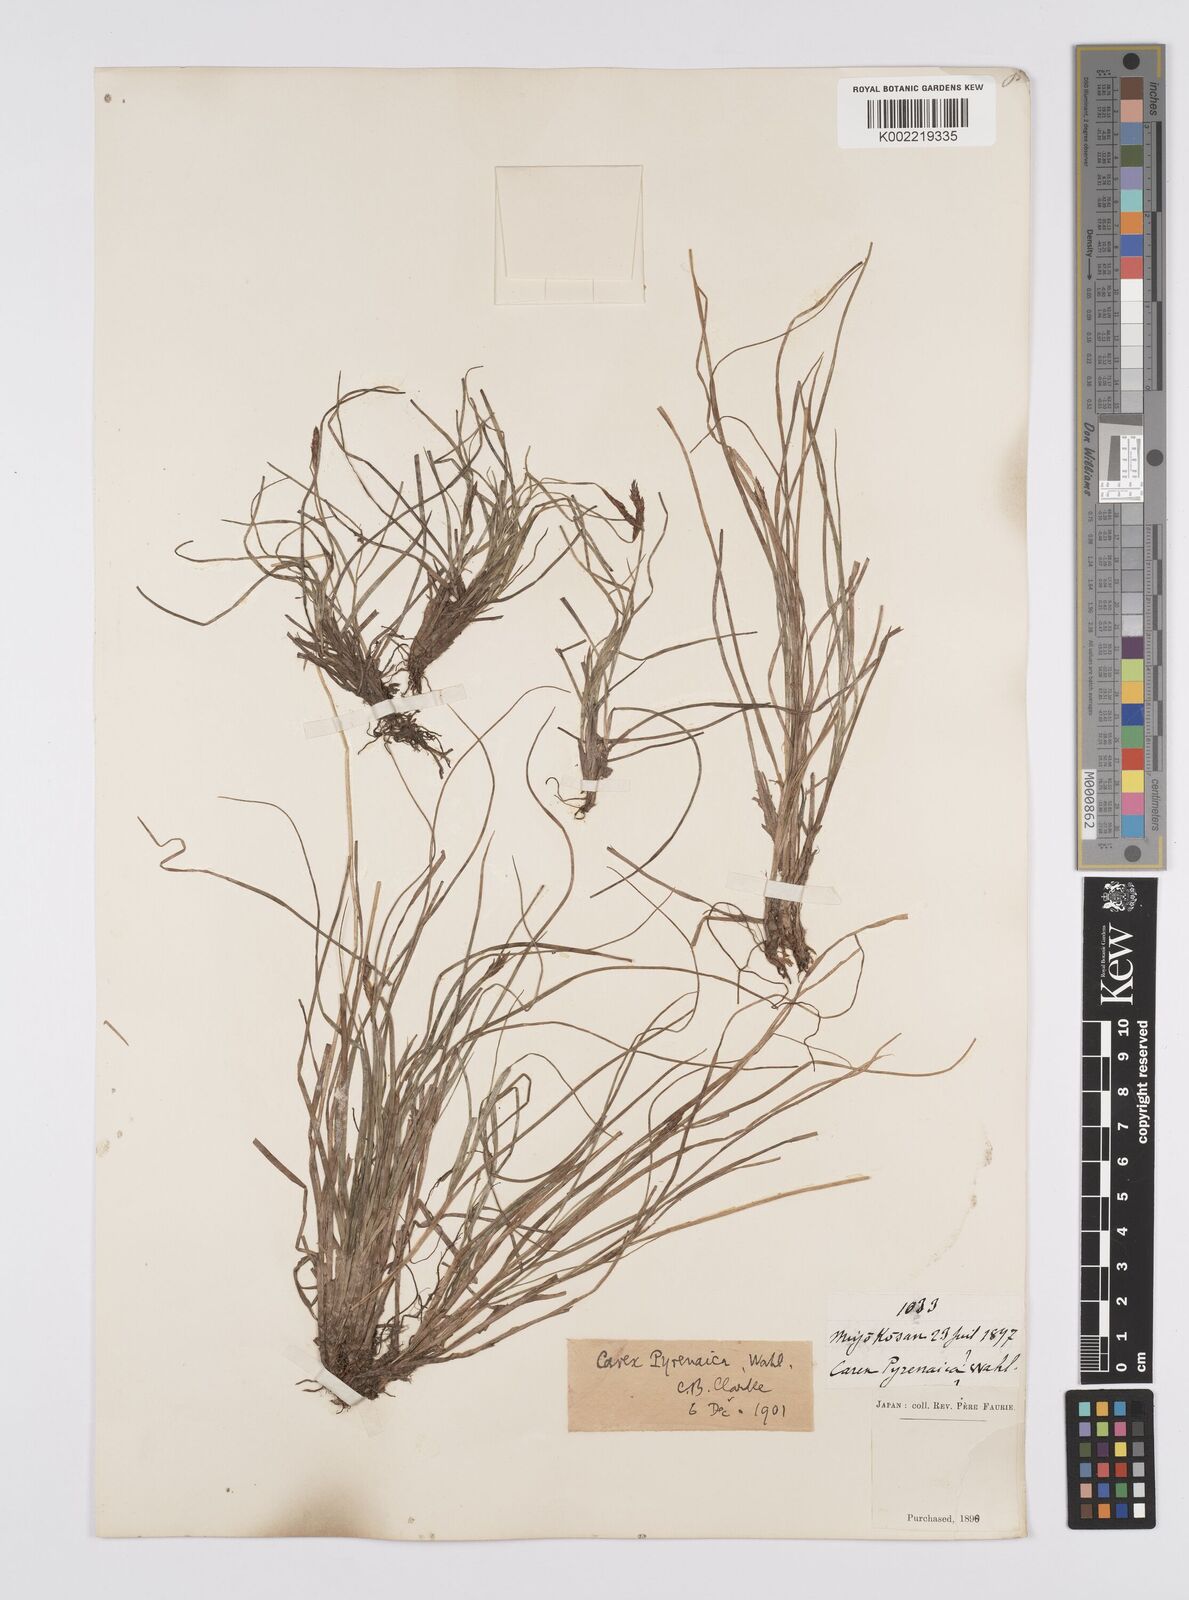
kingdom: Plantae
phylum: Tracheophyta
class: Liliopsida
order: Poales
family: Cyperaceae
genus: Carex
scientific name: Carex pyrenaica
